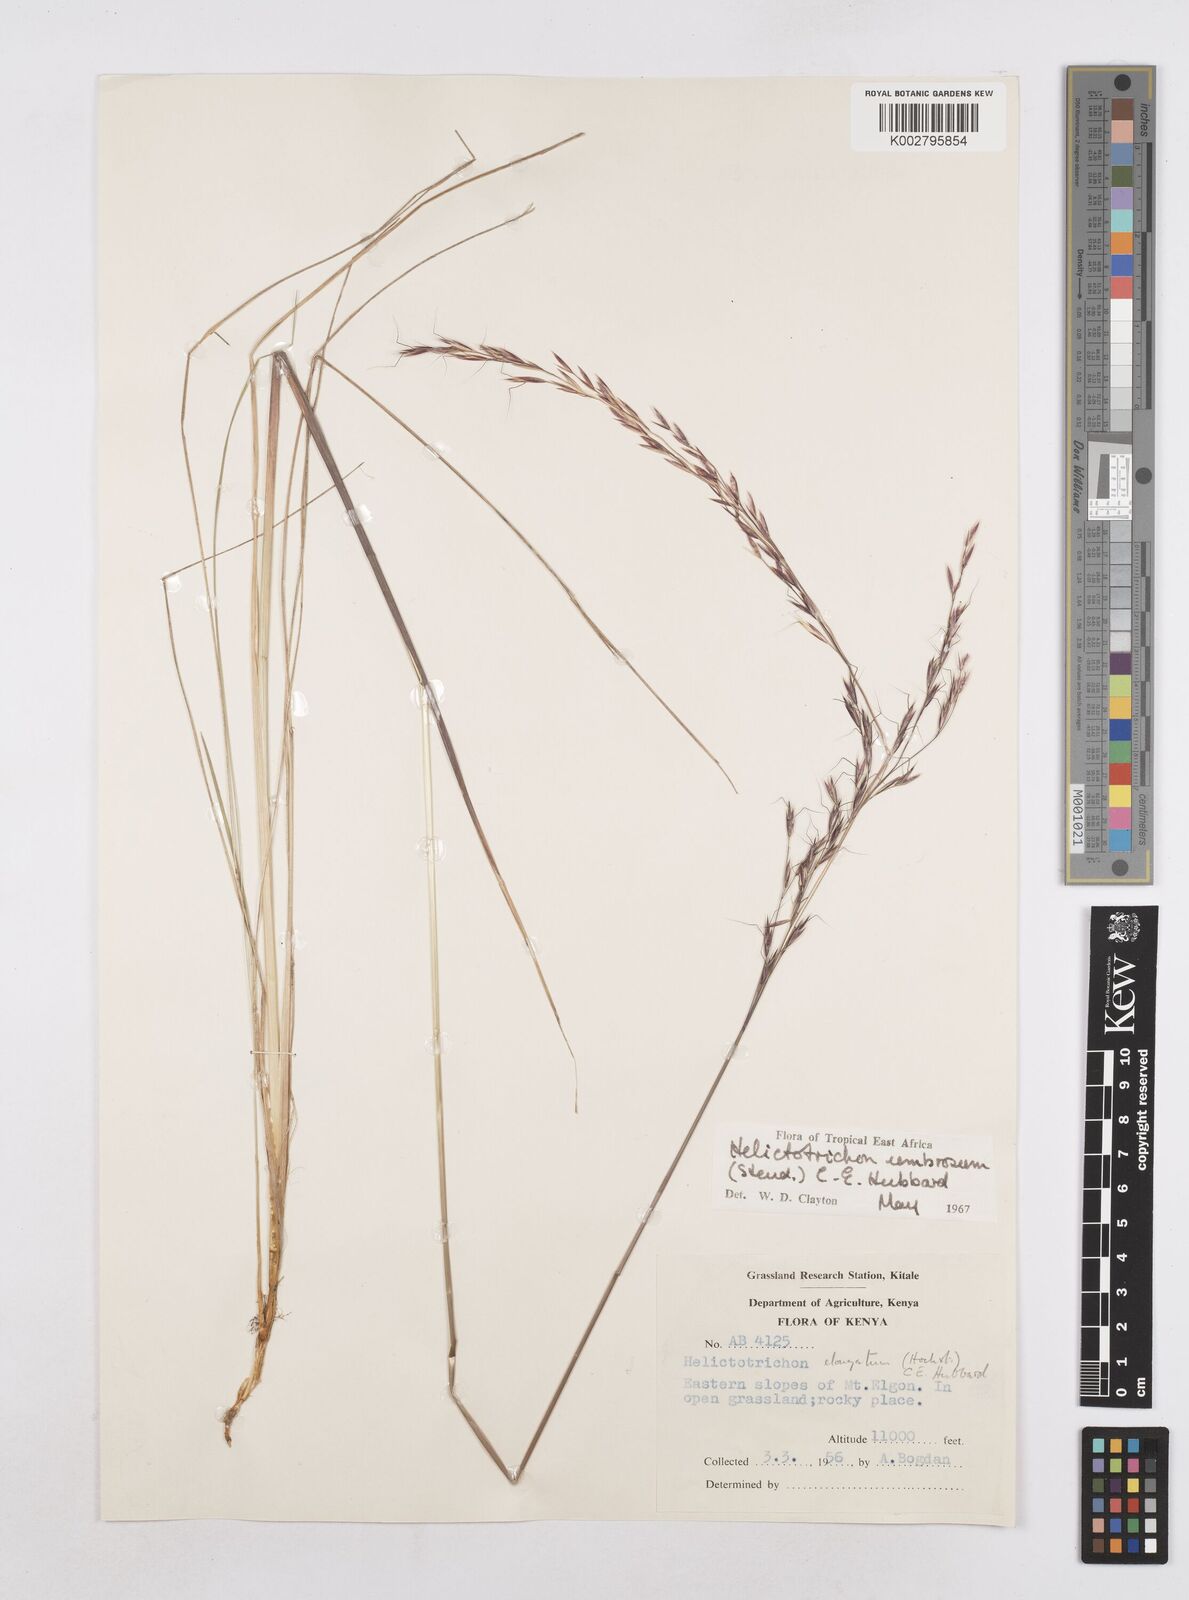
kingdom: Plantae
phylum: Tracheophyta
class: Liliopsida
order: Poales
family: Poaceae
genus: Trisetopsis
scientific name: Trisetopsis umbrosa
